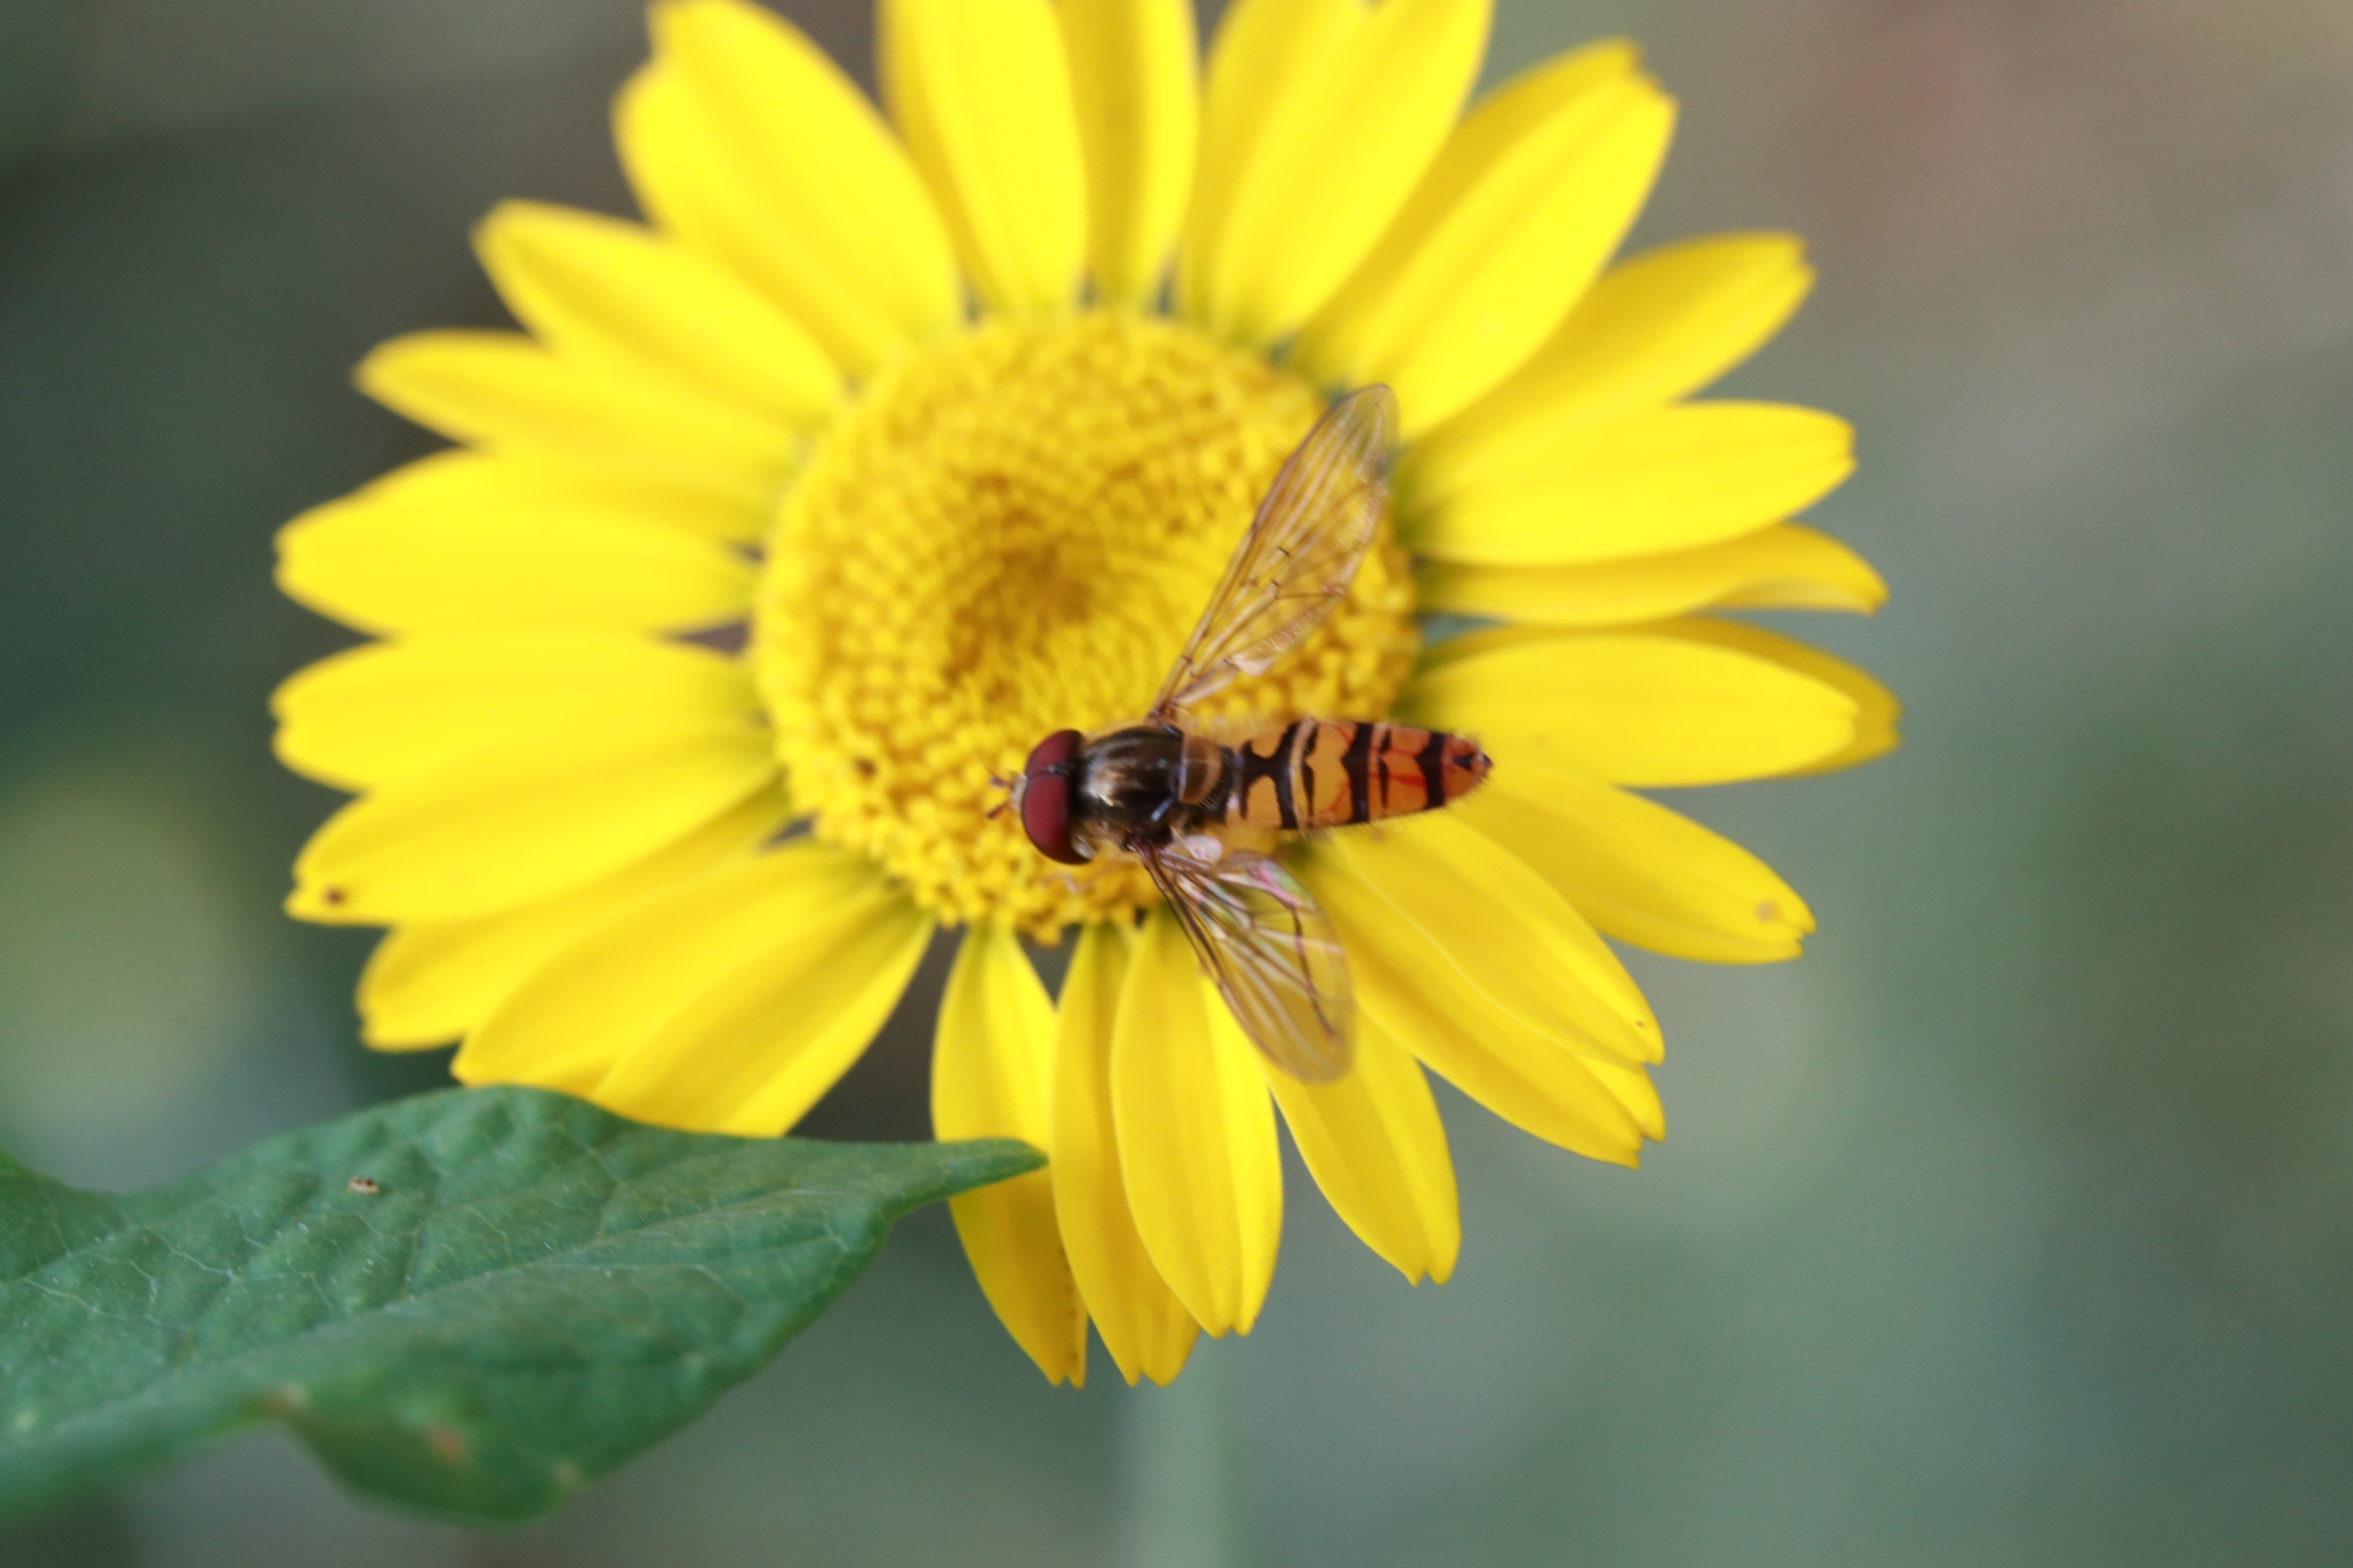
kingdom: Animalia
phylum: Arthropoda
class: Insecta
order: Diptera
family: Syrphidae
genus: Episyrphus
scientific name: Episyrphus balteatus
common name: Dobbeltbåndet svirreflue
